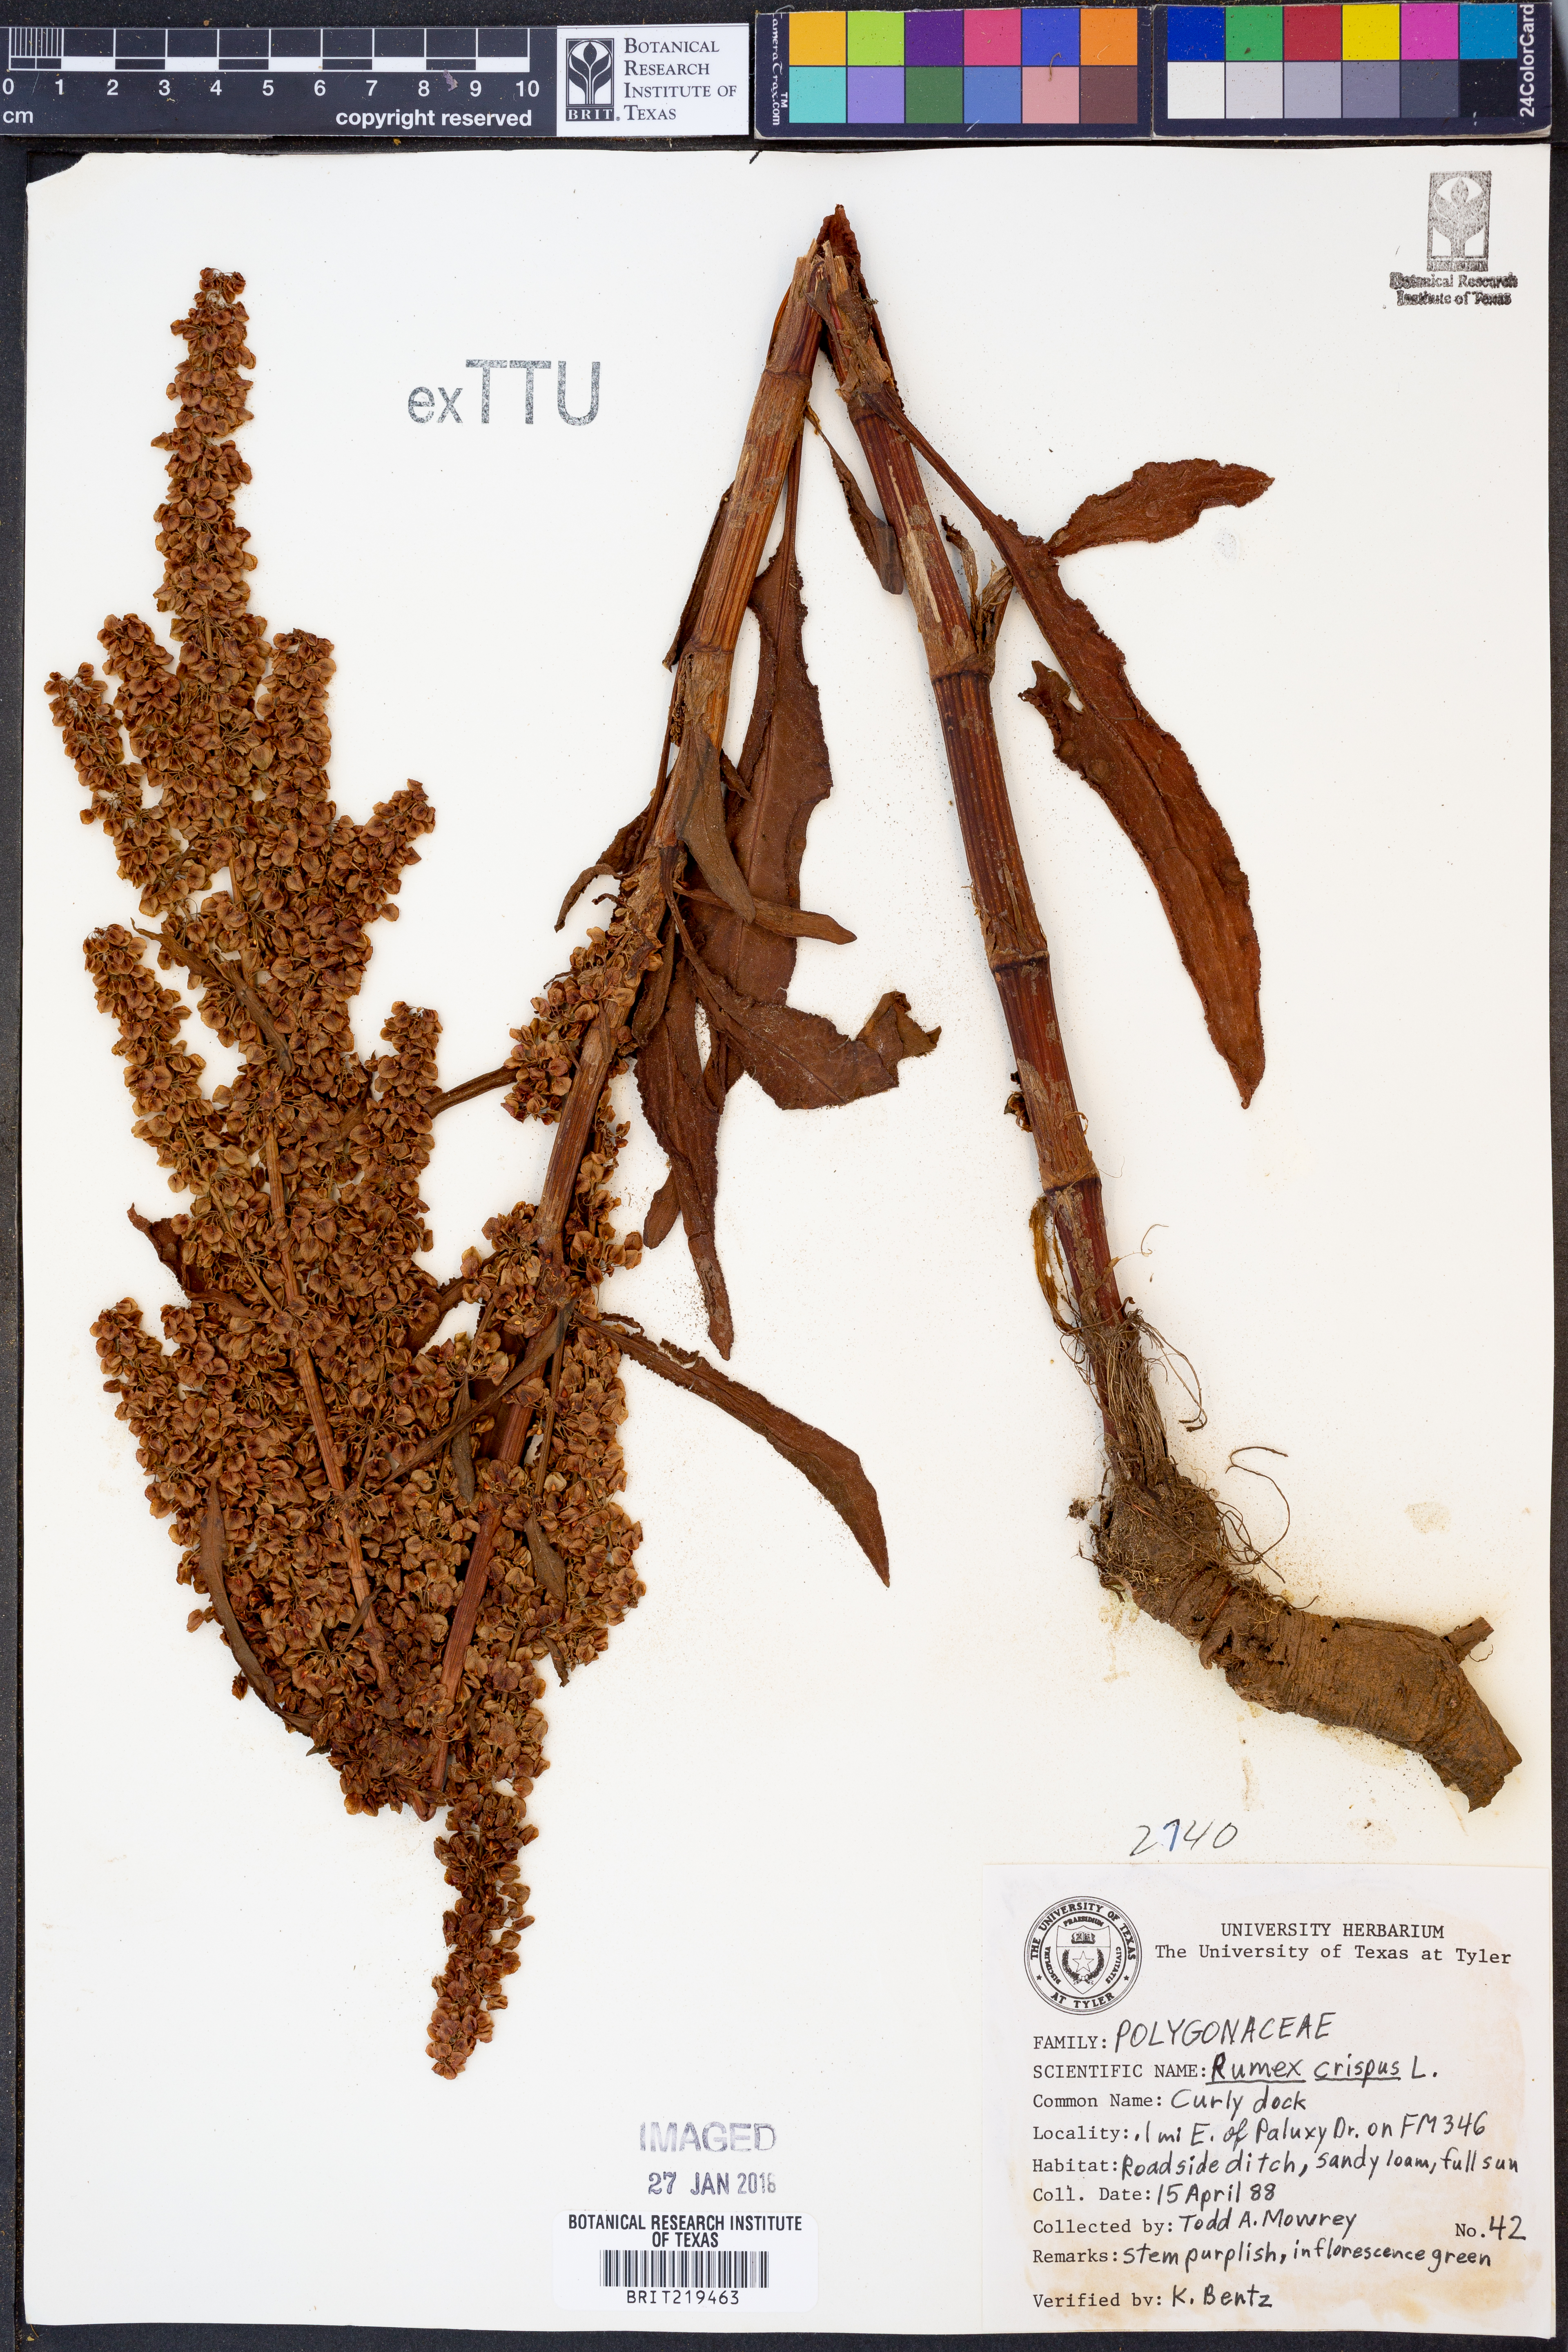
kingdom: Plantae
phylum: Tracheophyta
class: Magnoliopsida
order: Caryophyllales
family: Polygonaceae
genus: Rumex
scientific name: Rumex crispus
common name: Curled dock
